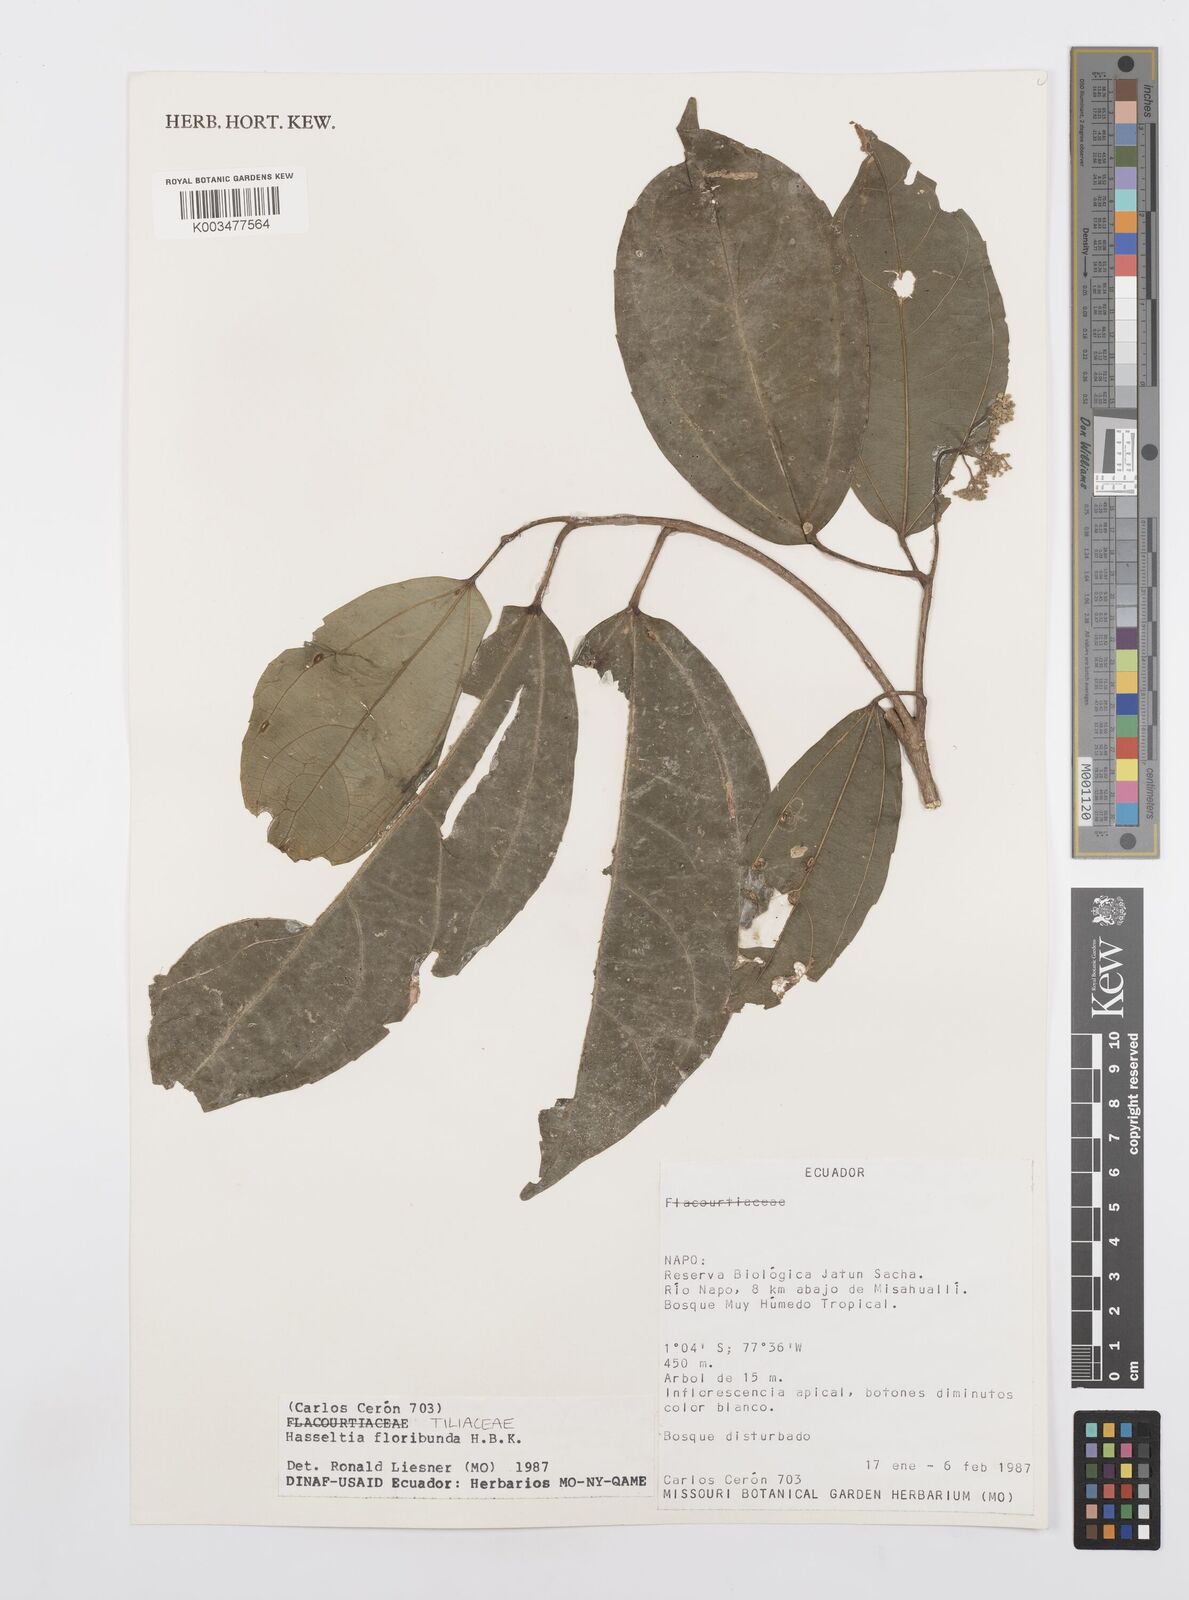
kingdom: Plantae
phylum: Tracheophyta
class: Magnoliopsida
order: Malpighiales
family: Salicaceae
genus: Hasseltia
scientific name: Hasseltia floribunda
